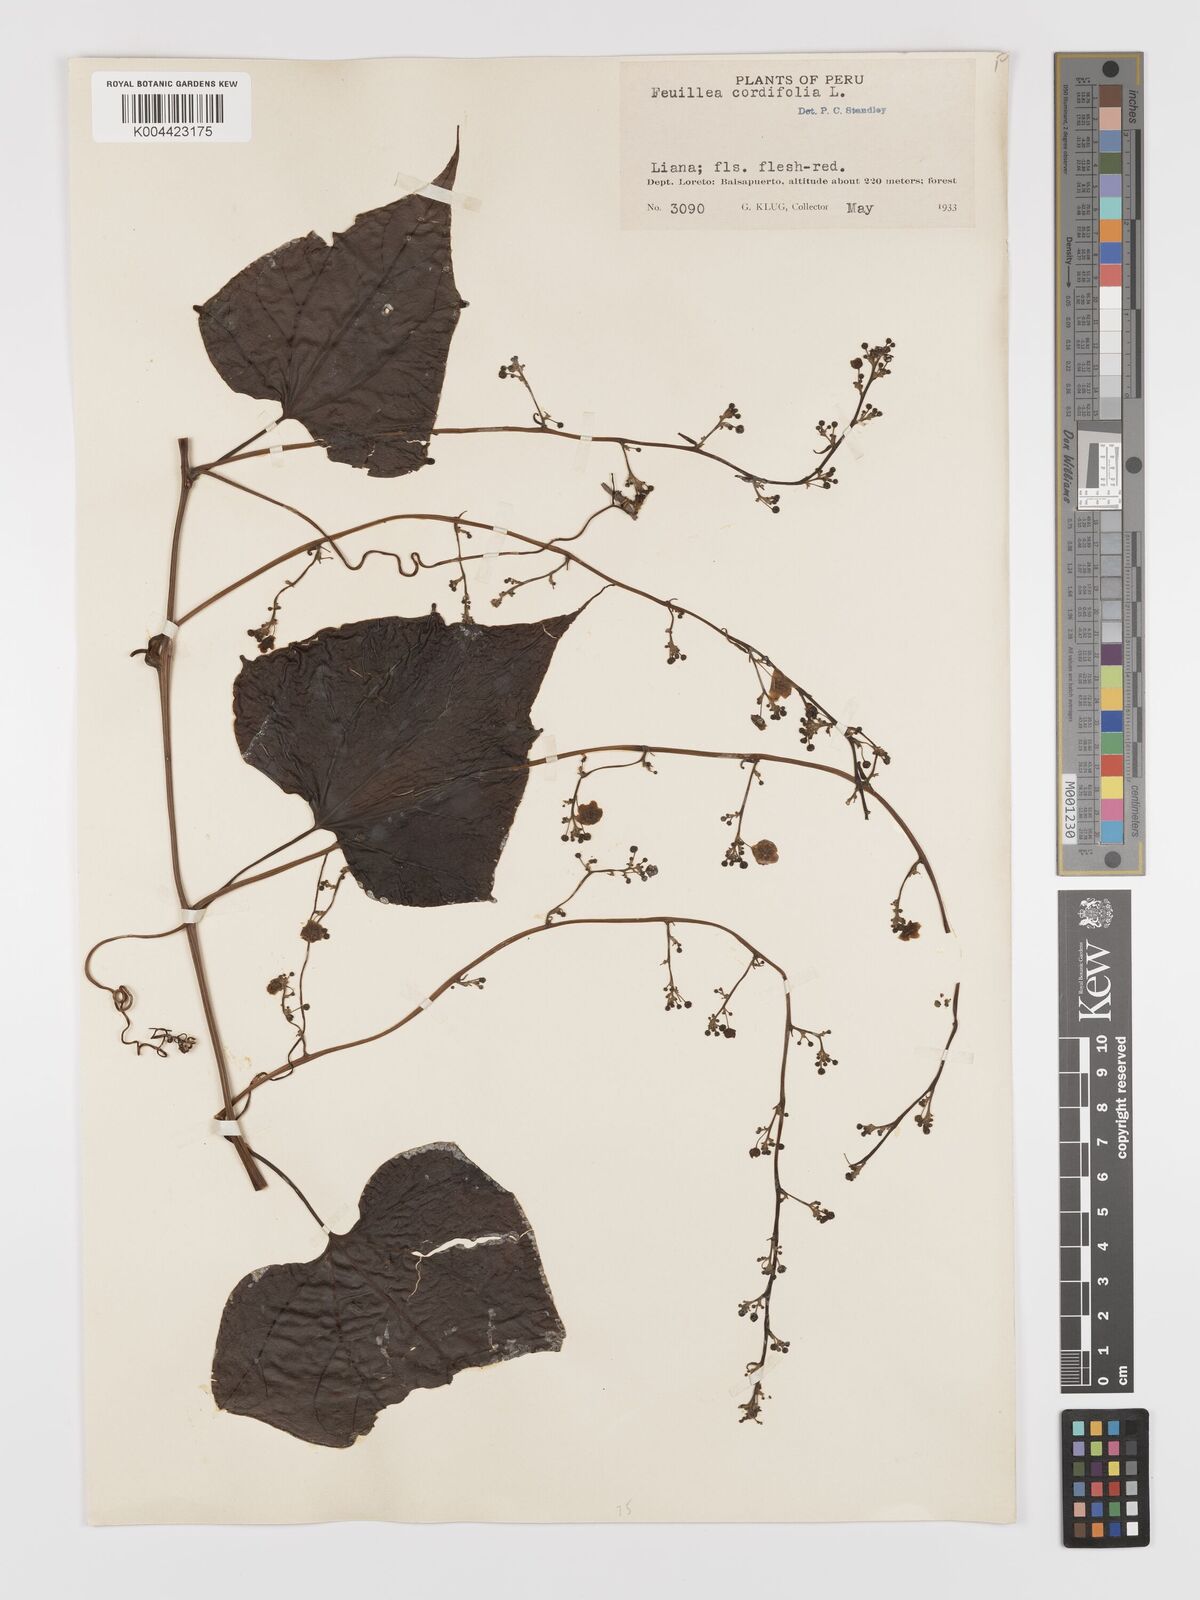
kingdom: Plantae
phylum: Tracheophyta
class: Magnoliopsida
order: Cucurbitales
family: Cucurbitaceae
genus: Fevillea
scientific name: Fevillea
